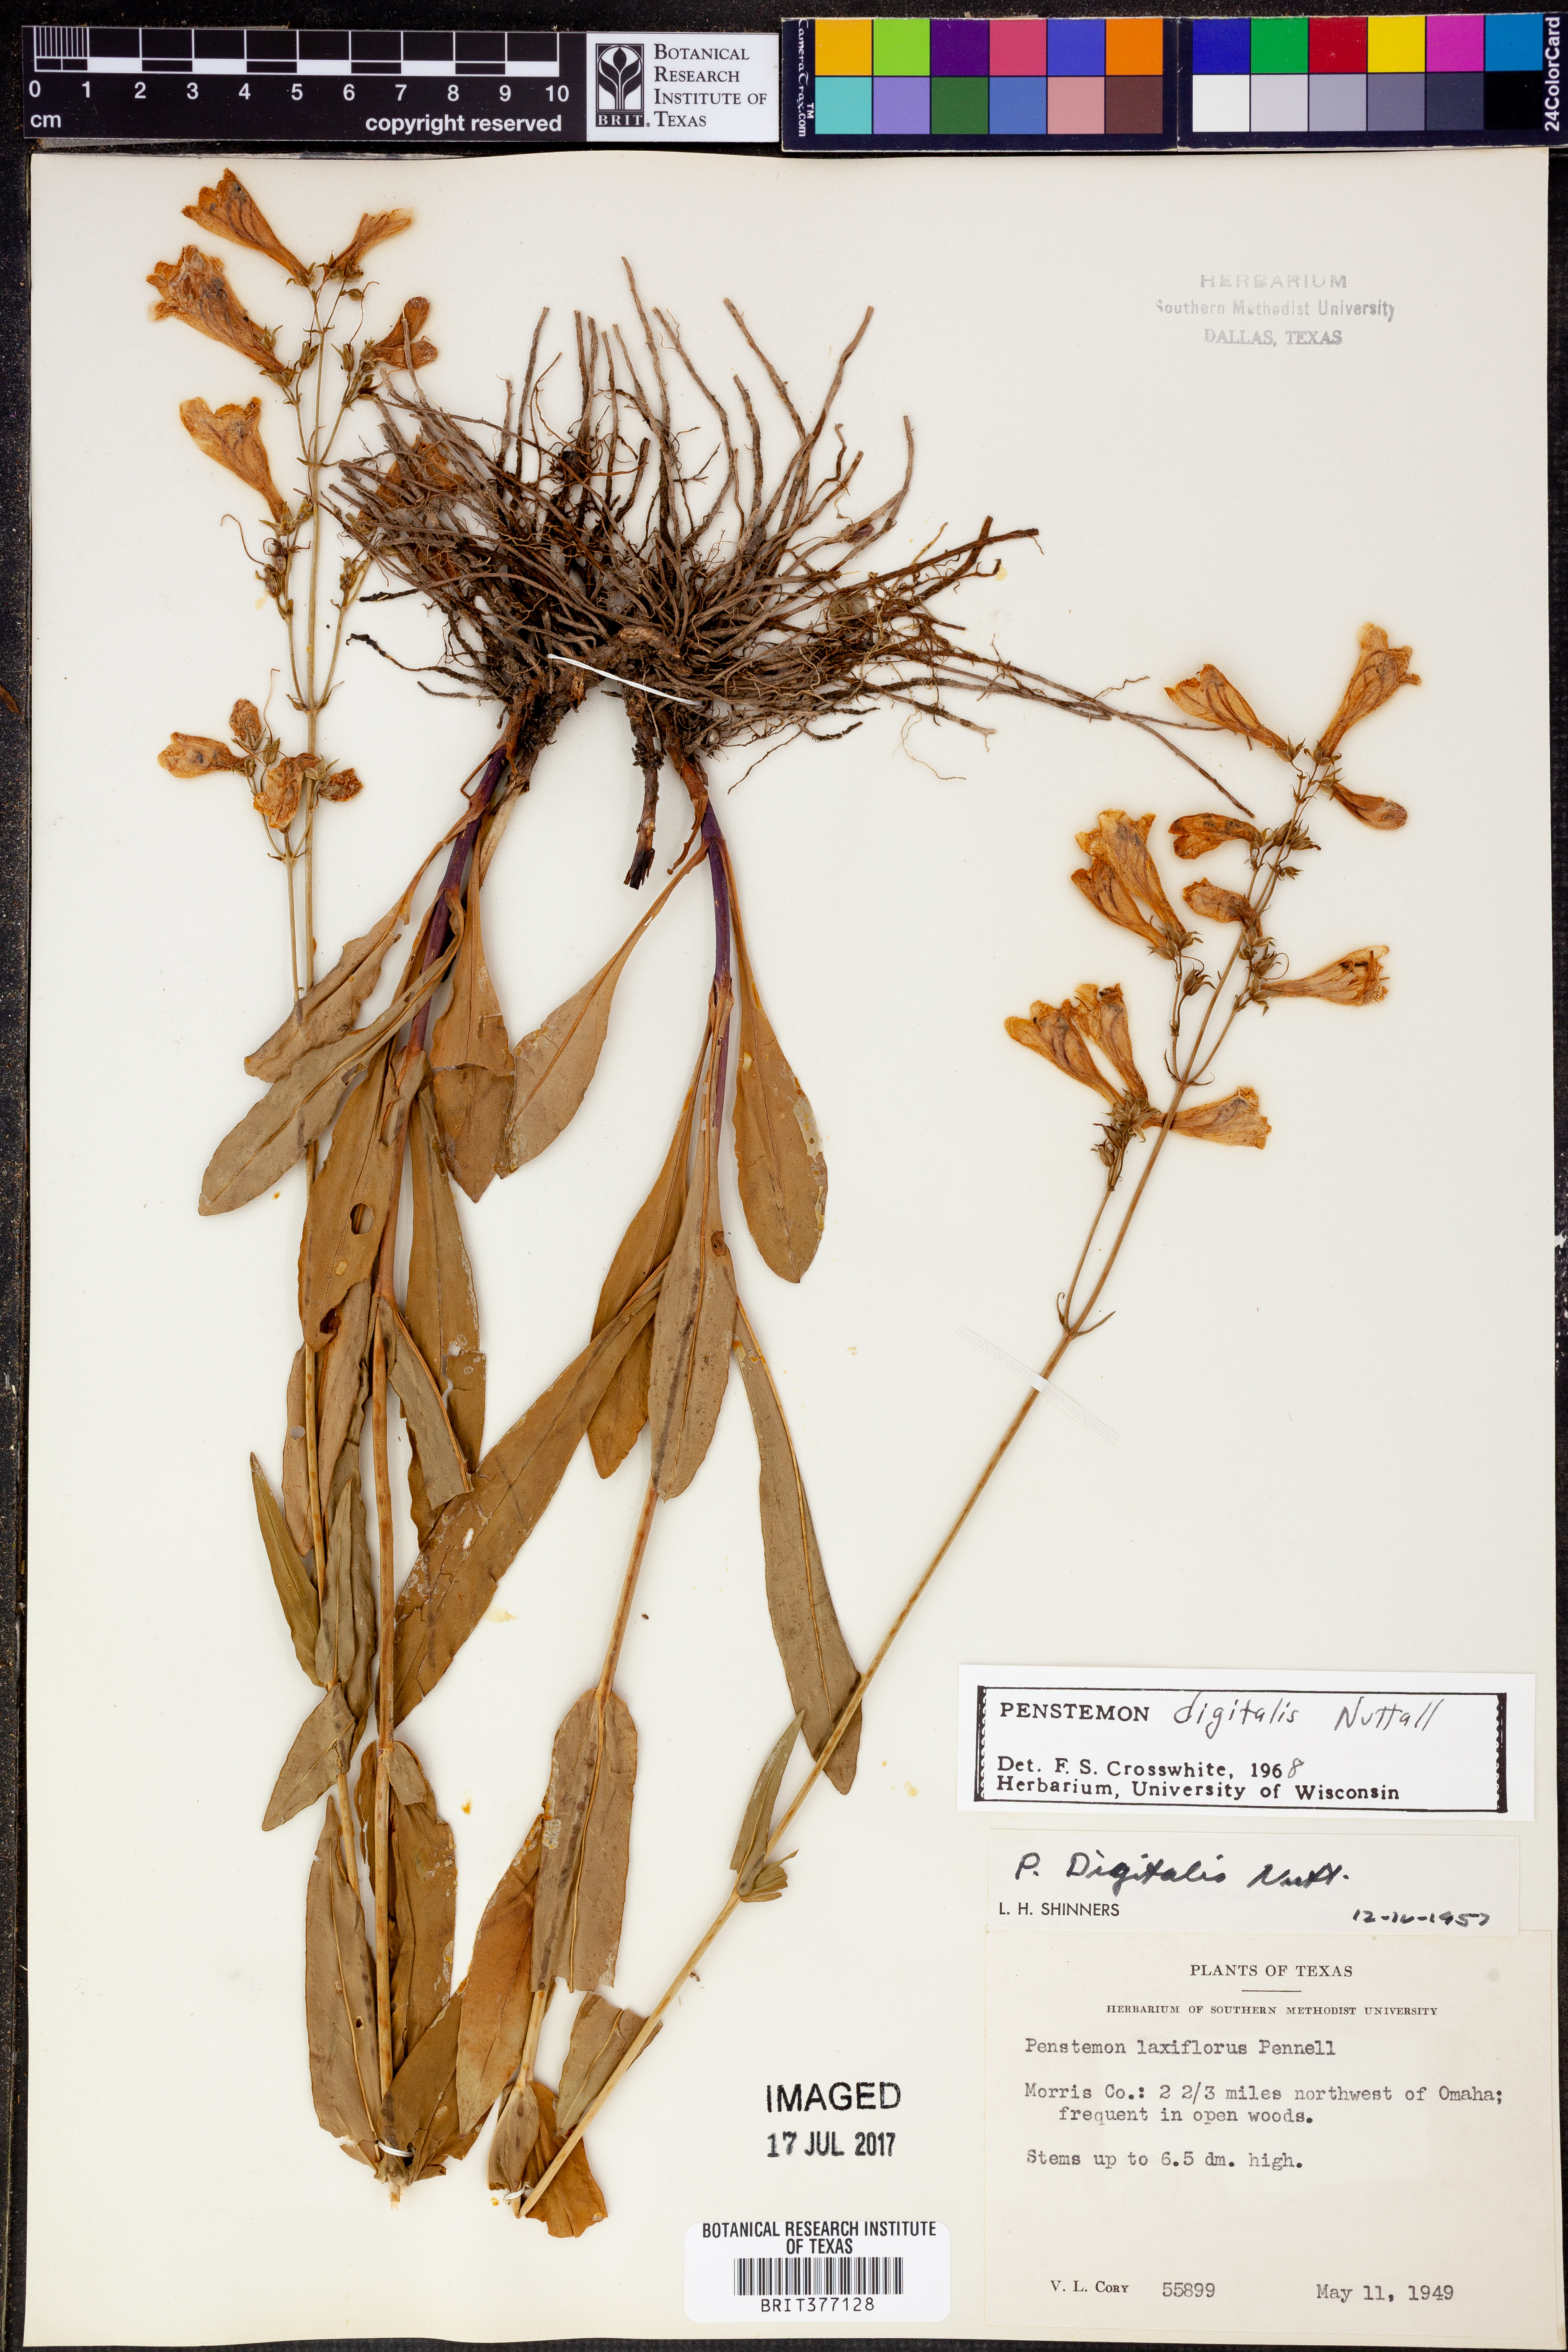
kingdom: Plantae
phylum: Tracheophyta
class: Magnoliopsida
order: Lamiales
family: Plantaginaceae
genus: Penstemon
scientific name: Penstemon digitalis
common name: Foxglove beardtongue
